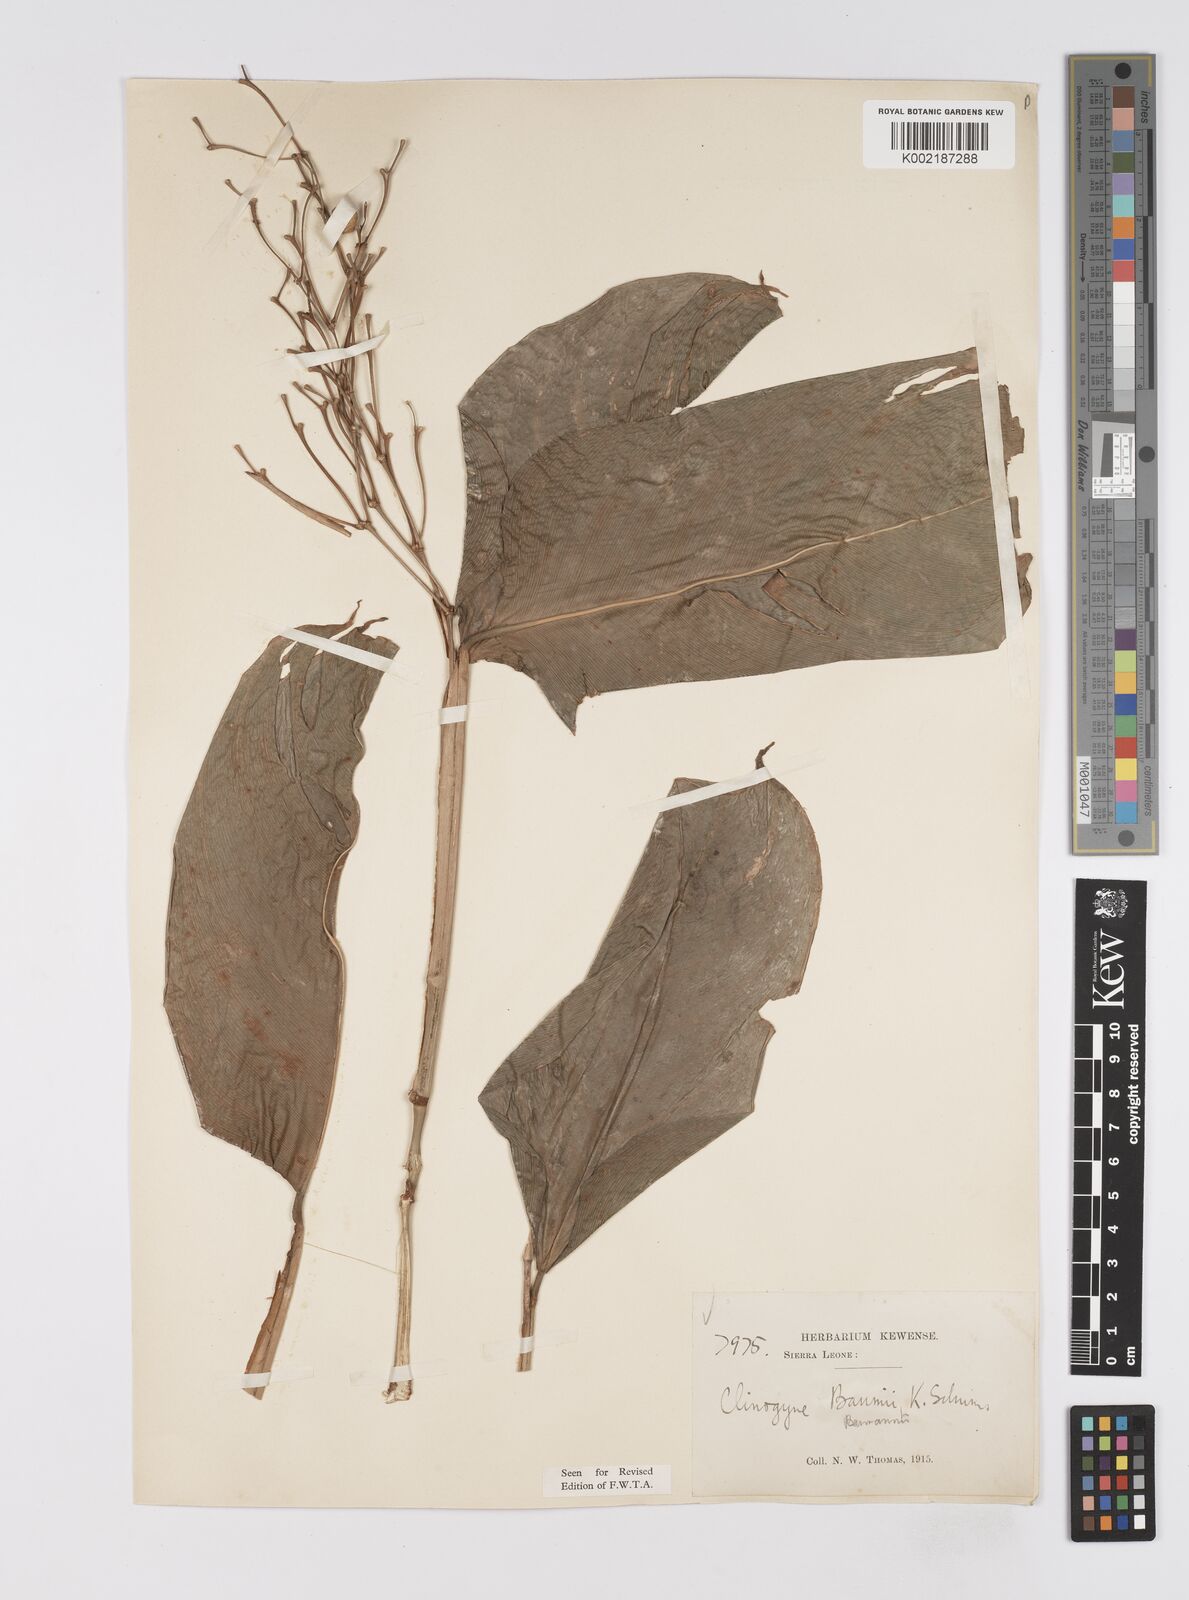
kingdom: Plantae
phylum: Tracheophyta
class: Liliopsida
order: Zingiberales
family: Marantaceae
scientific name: Marantaceae
